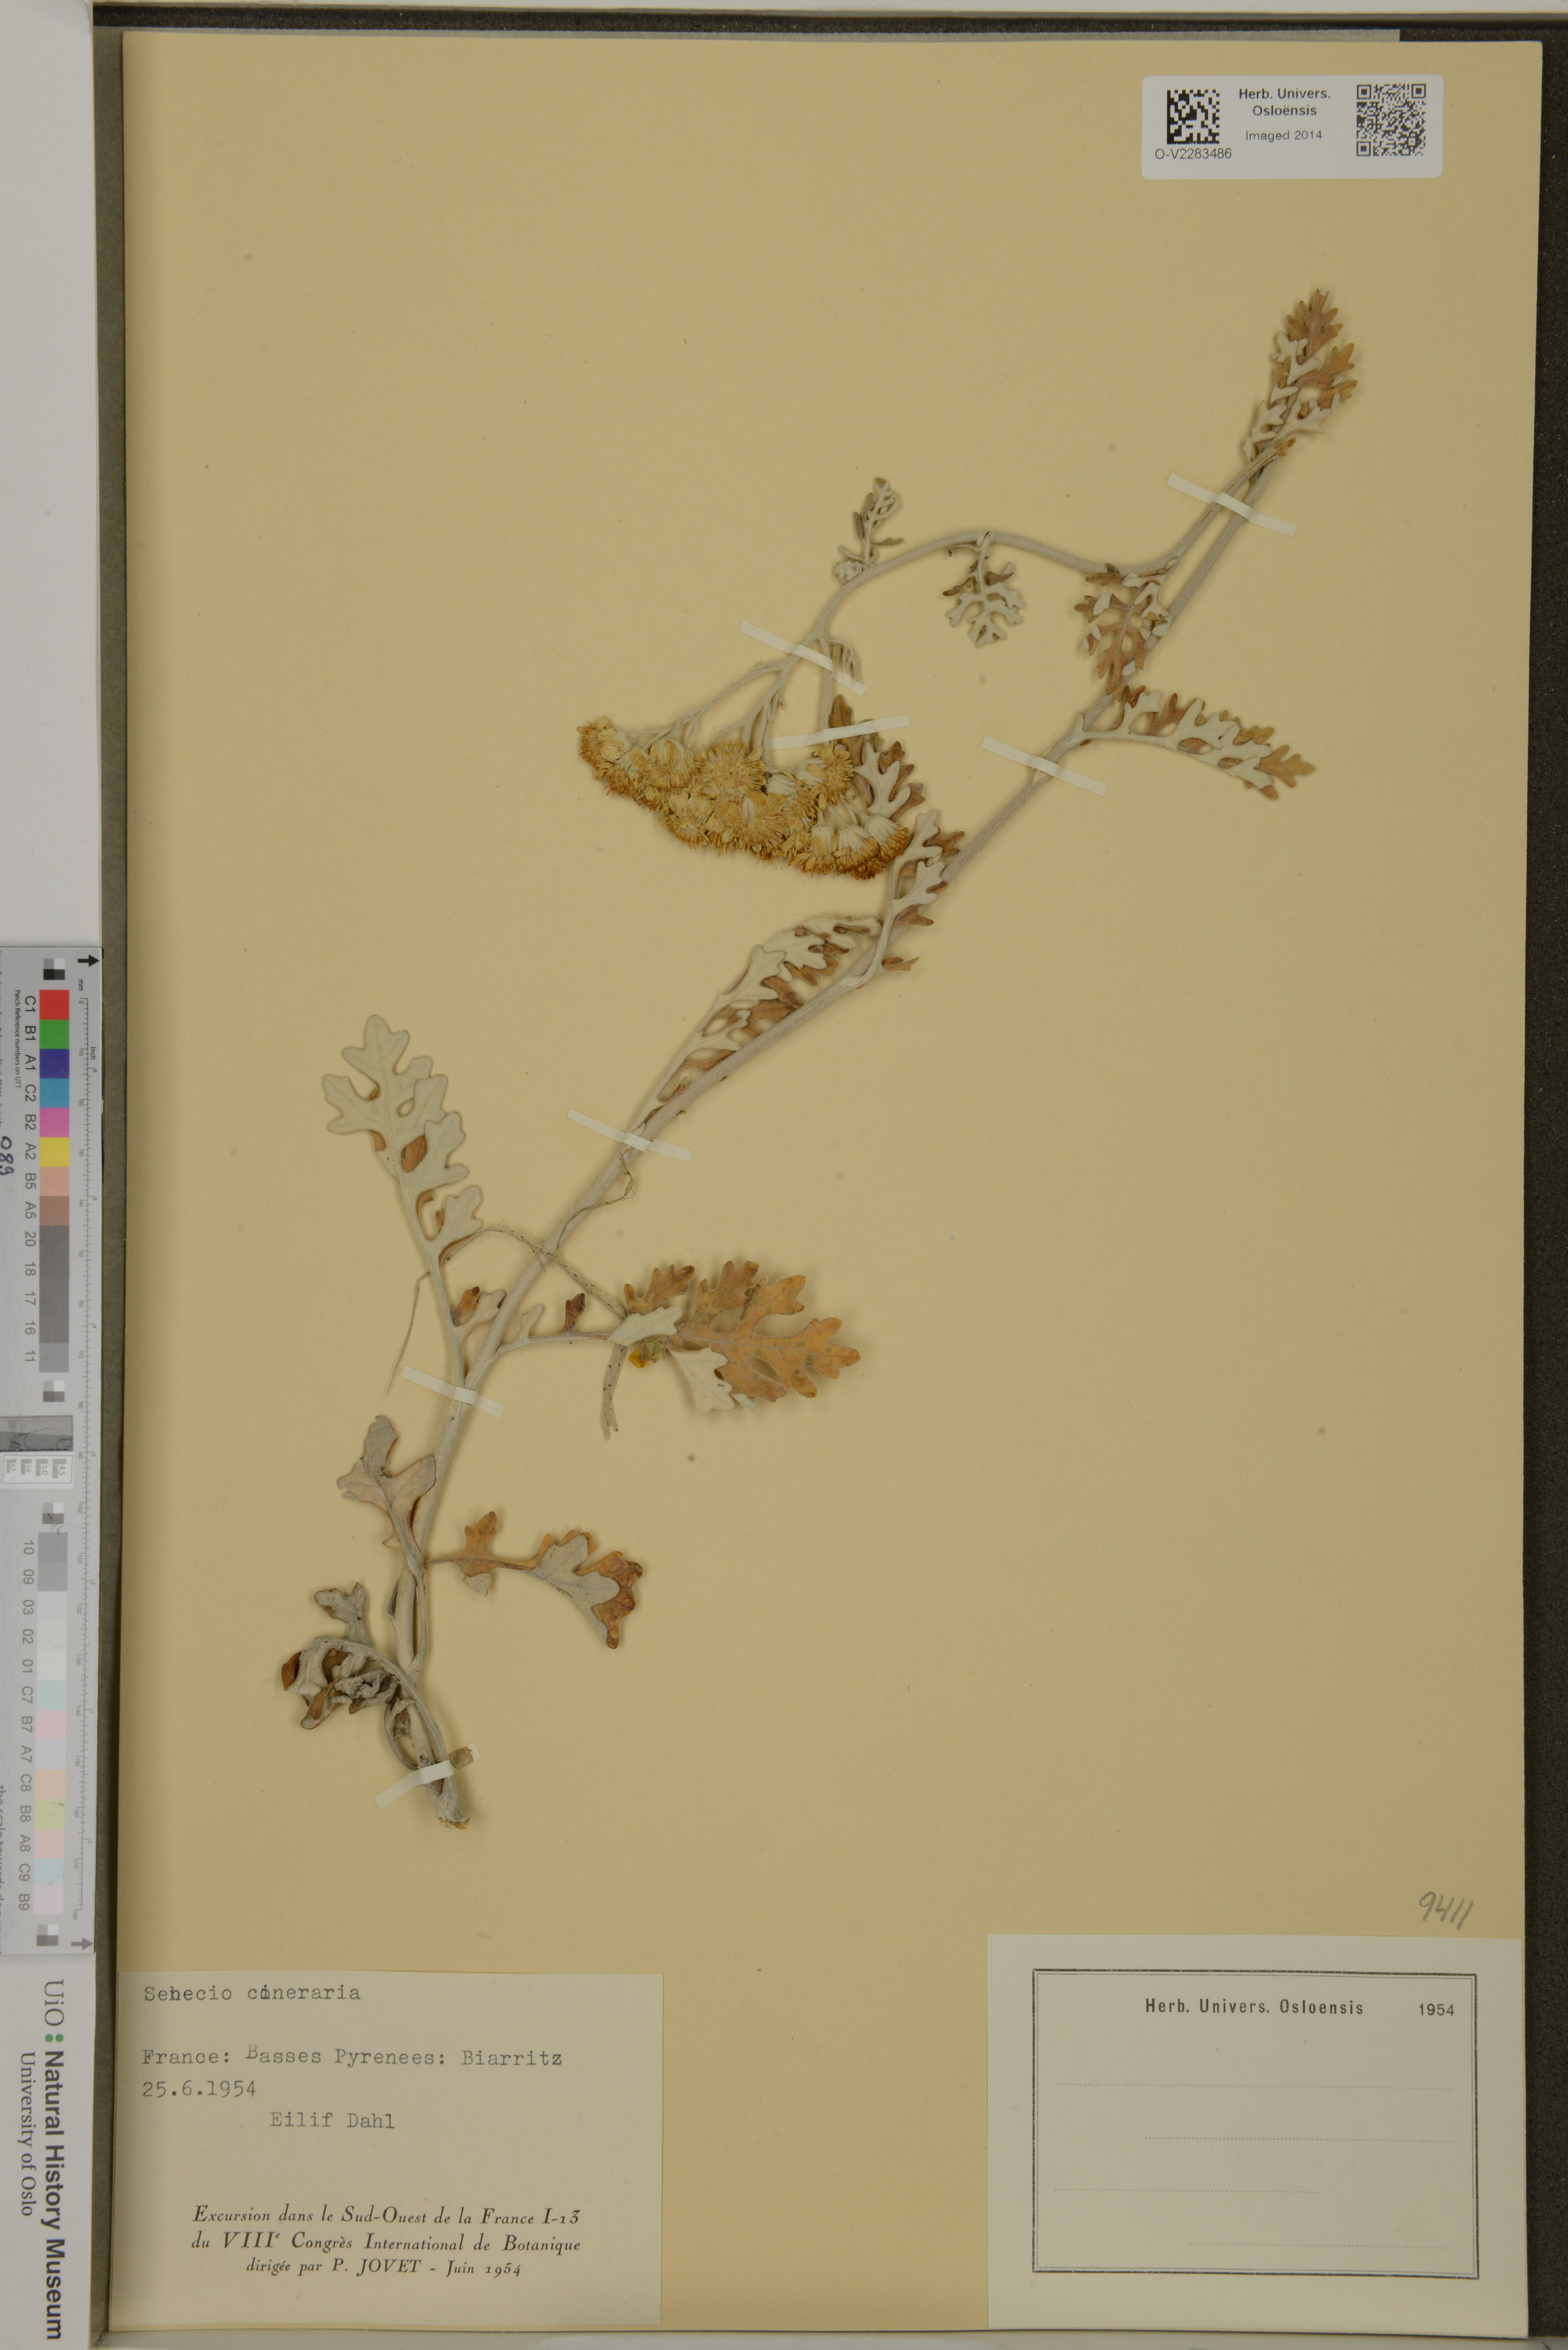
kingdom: Plantae
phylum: Tracheophyta
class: Magnoliopsida
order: Asterales
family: Asteraceae
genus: Jacobaea
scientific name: Jacobaea maritima
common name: Silver ragwort
